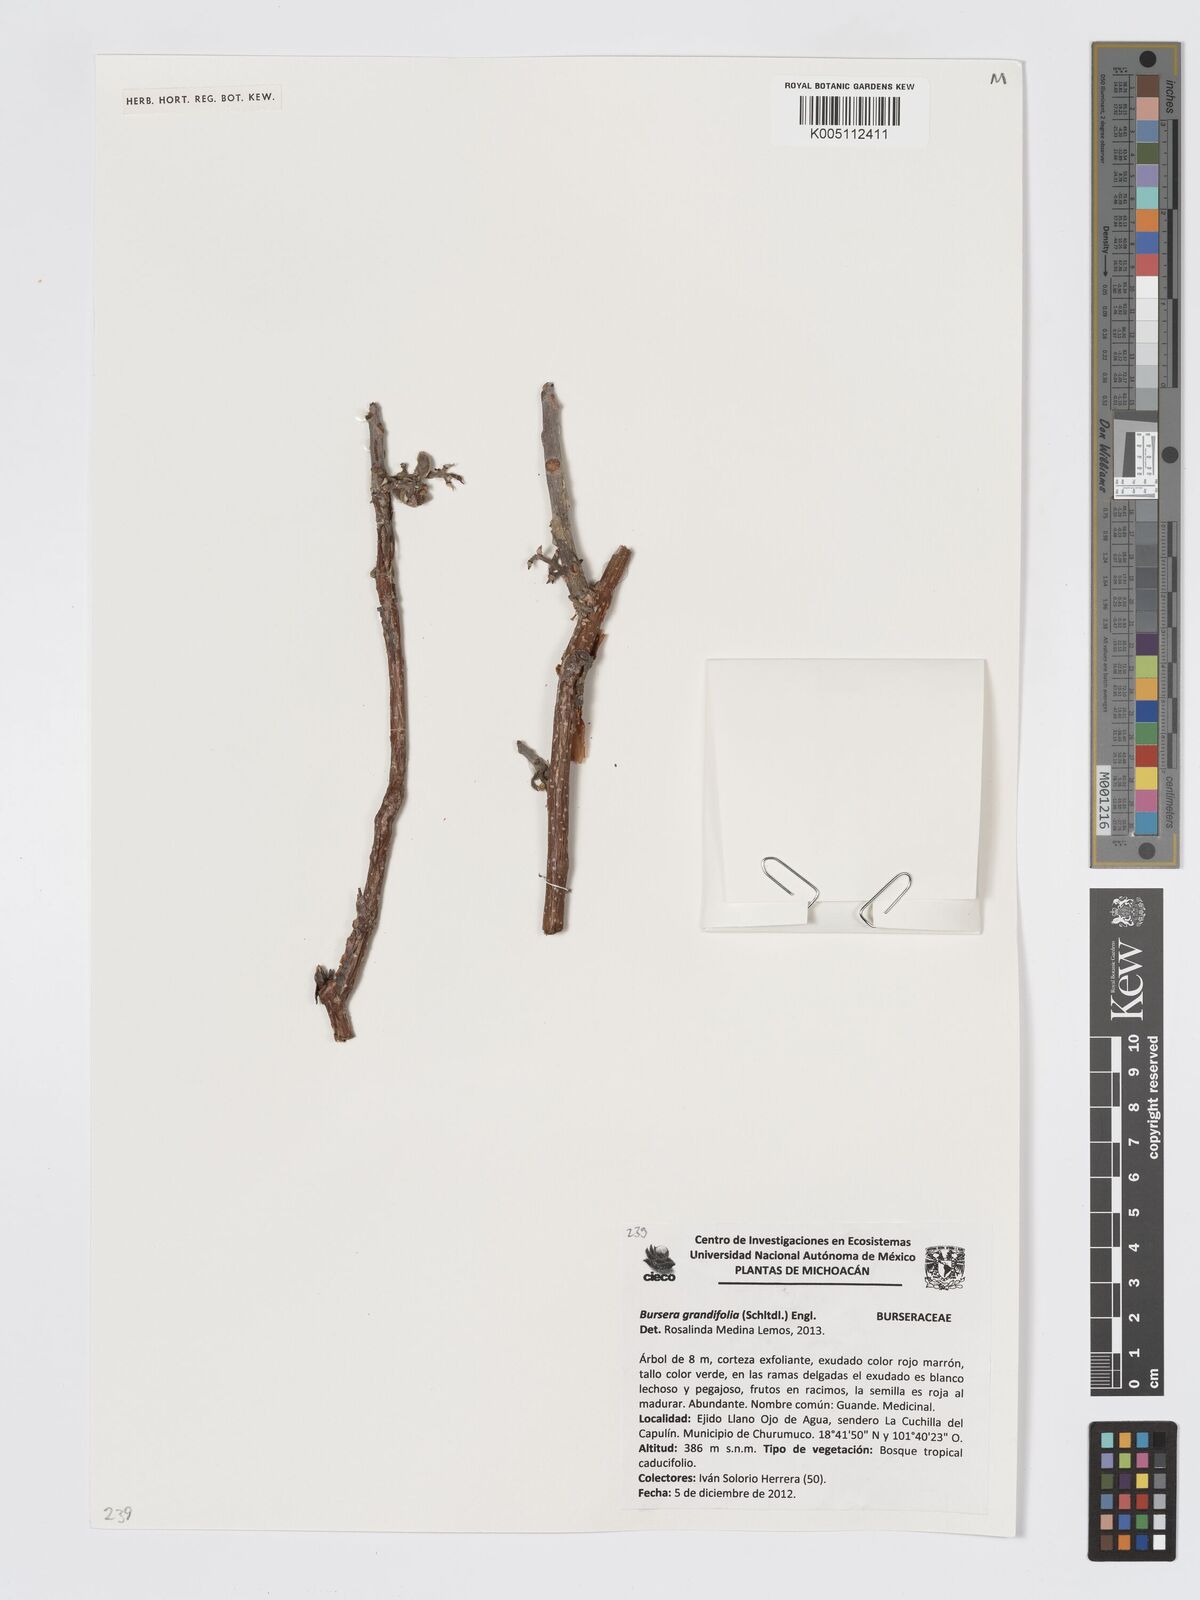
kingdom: Plantae
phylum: Tracheophyta
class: Magnoliopsida
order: Sapindales
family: Burseraceae
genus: Bursera
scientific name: Bursera grandifolia
